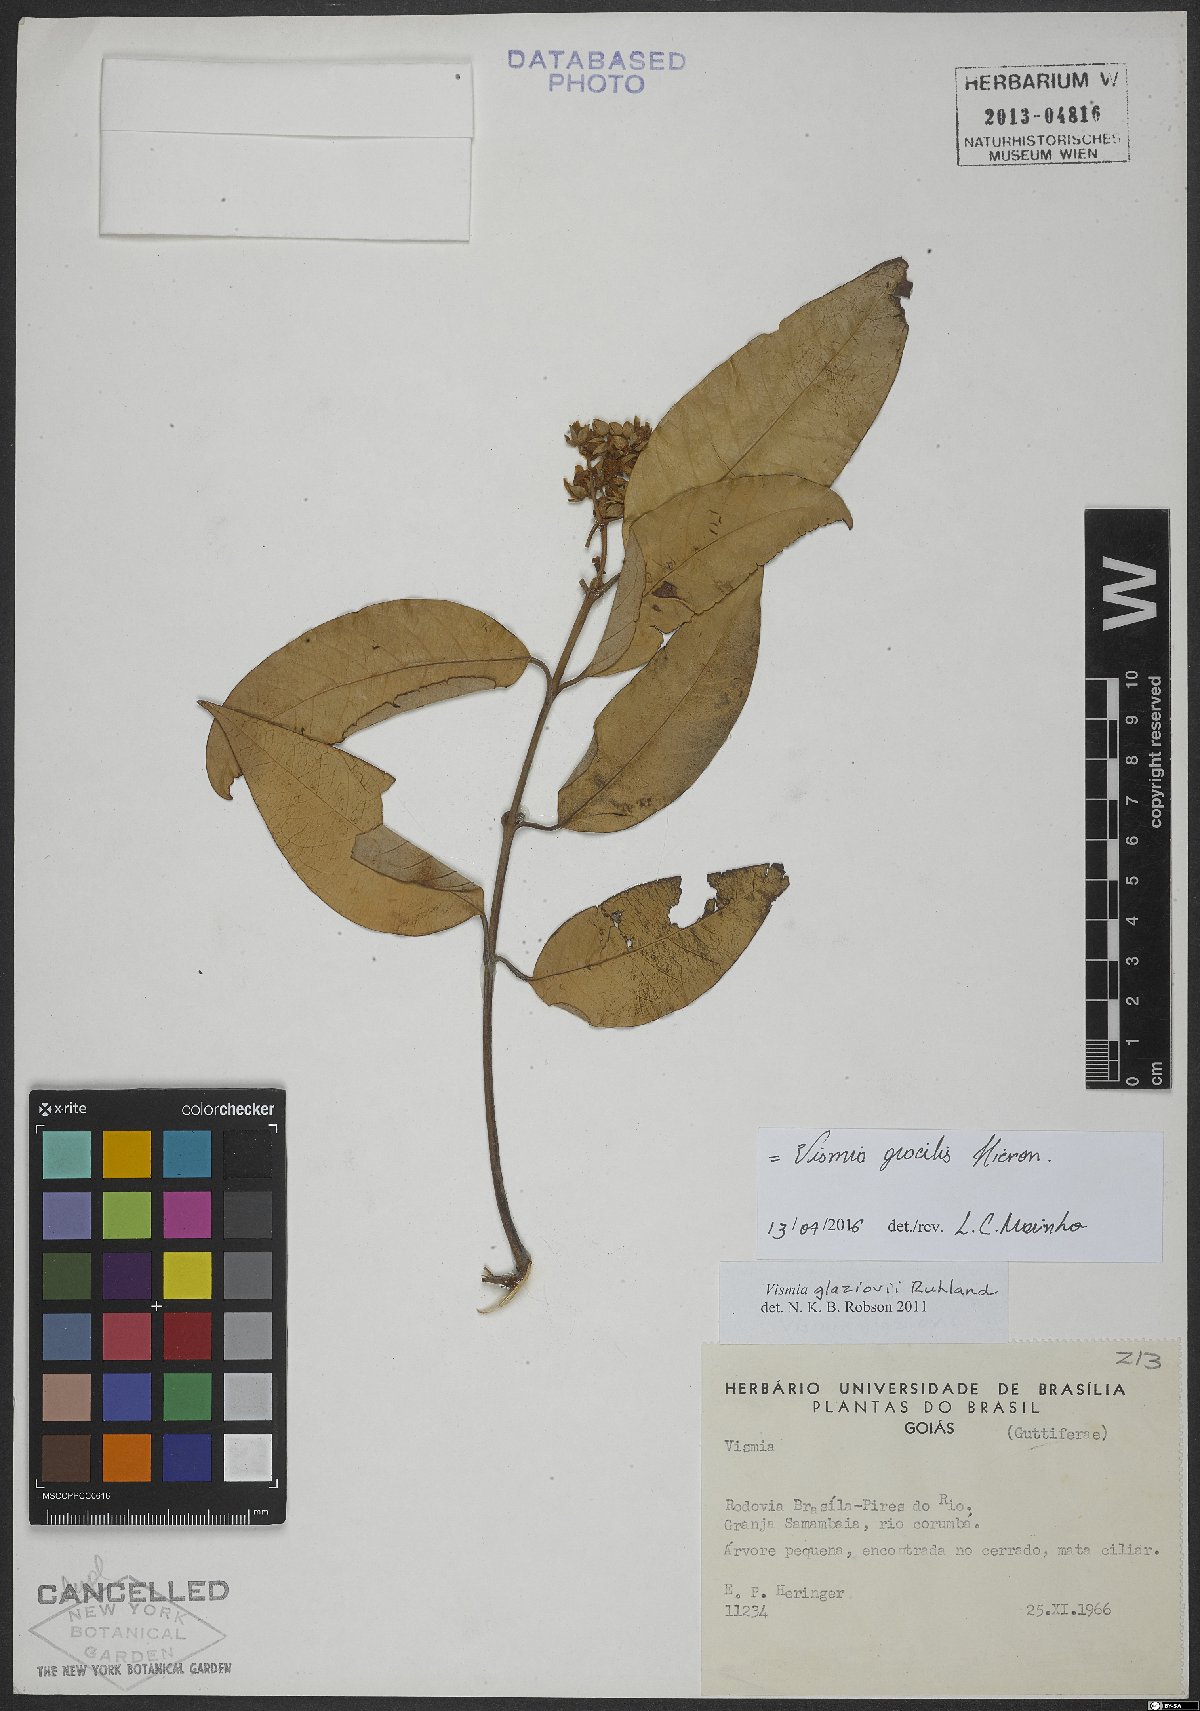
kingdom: Plantae
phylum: Tracheophyta
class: Magnoliopsida
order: Malpighiales
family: Hypericaceae
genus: Vismia
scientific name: Vismia gracilis
